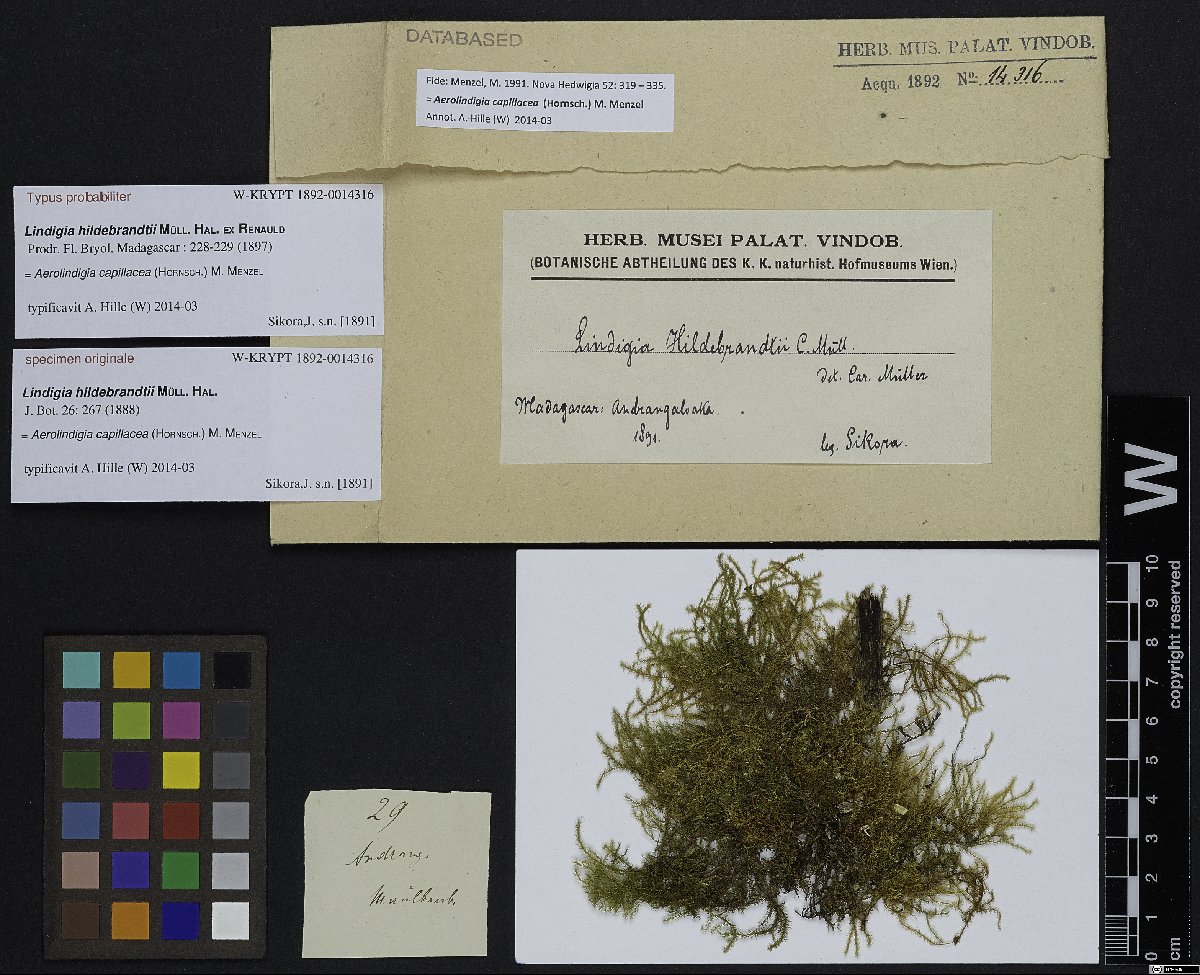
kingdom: Plantae
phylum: Bryophyta
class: Bryopsida
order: Hypnales
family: Brachytheciaceae
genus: Aerolindigia
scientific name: Aerolindigia capillacea
